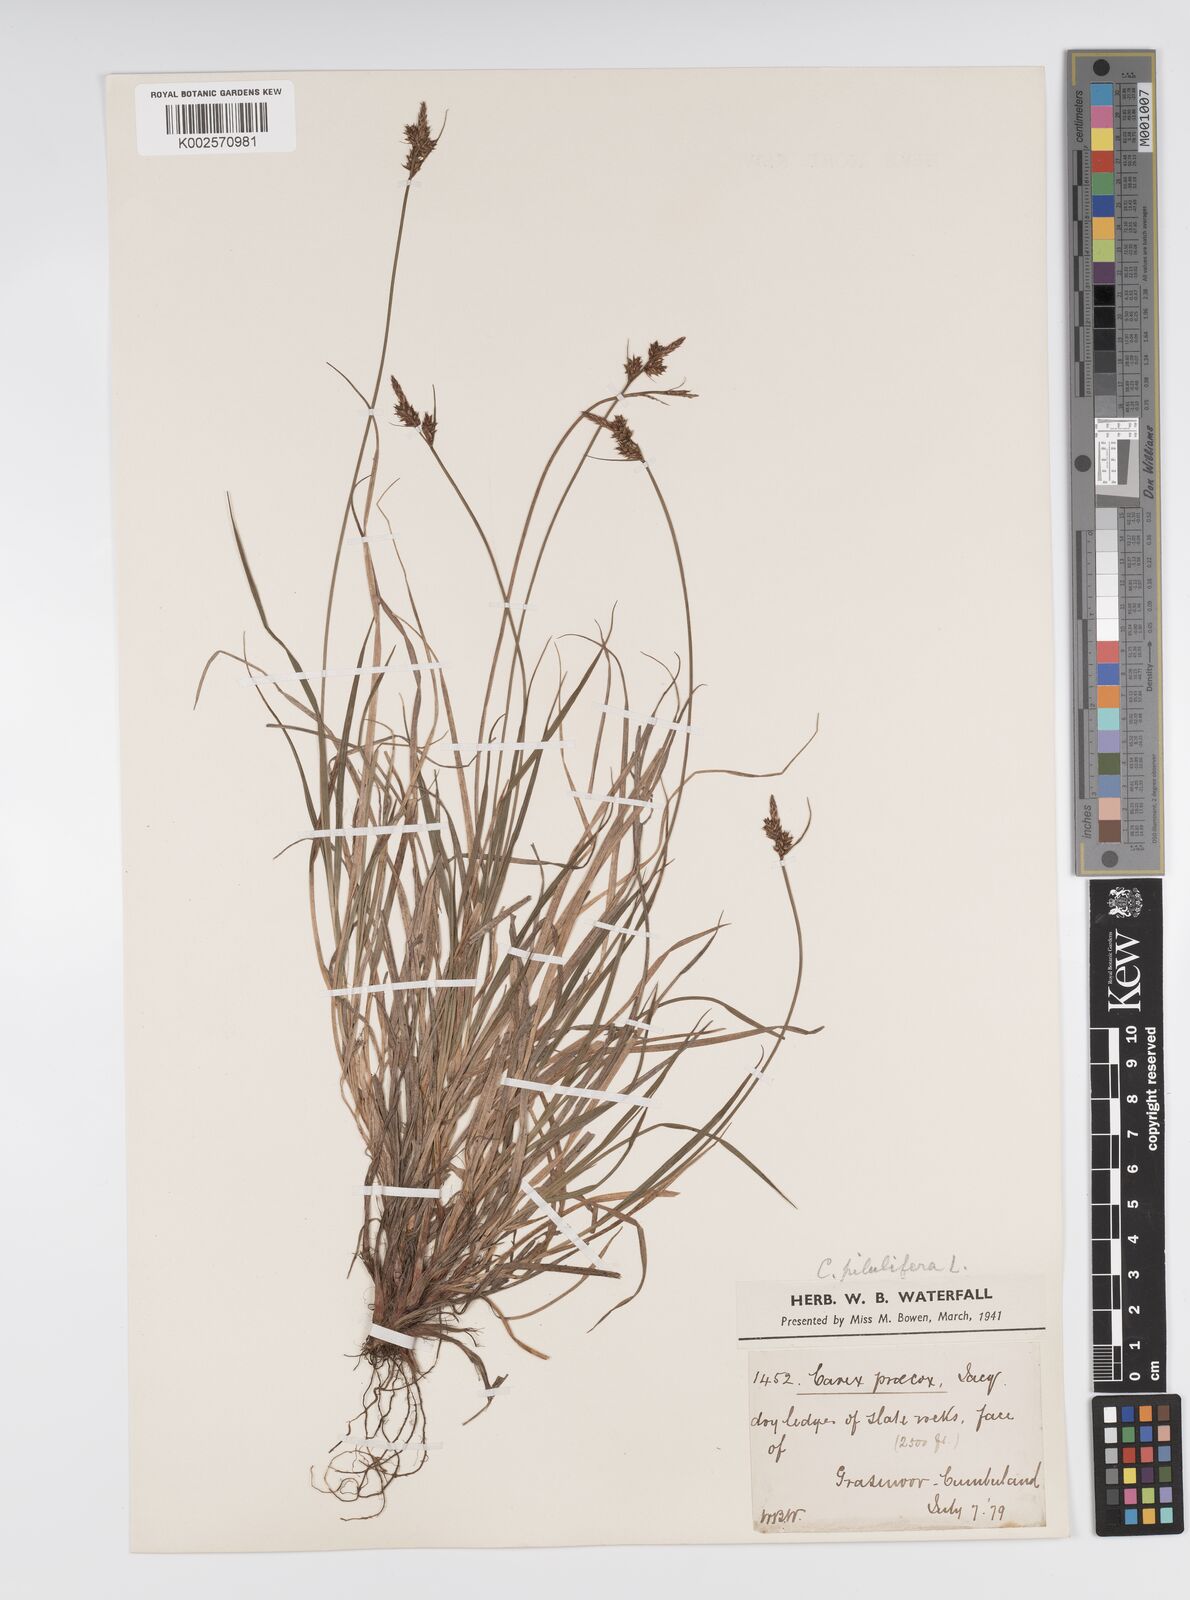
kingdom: Plantae
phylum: Tracheophyta
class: Liliopsida
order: Poales
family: Cyperaceae
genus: Carex
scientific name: Carex pilulifera
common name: Pill sedge
